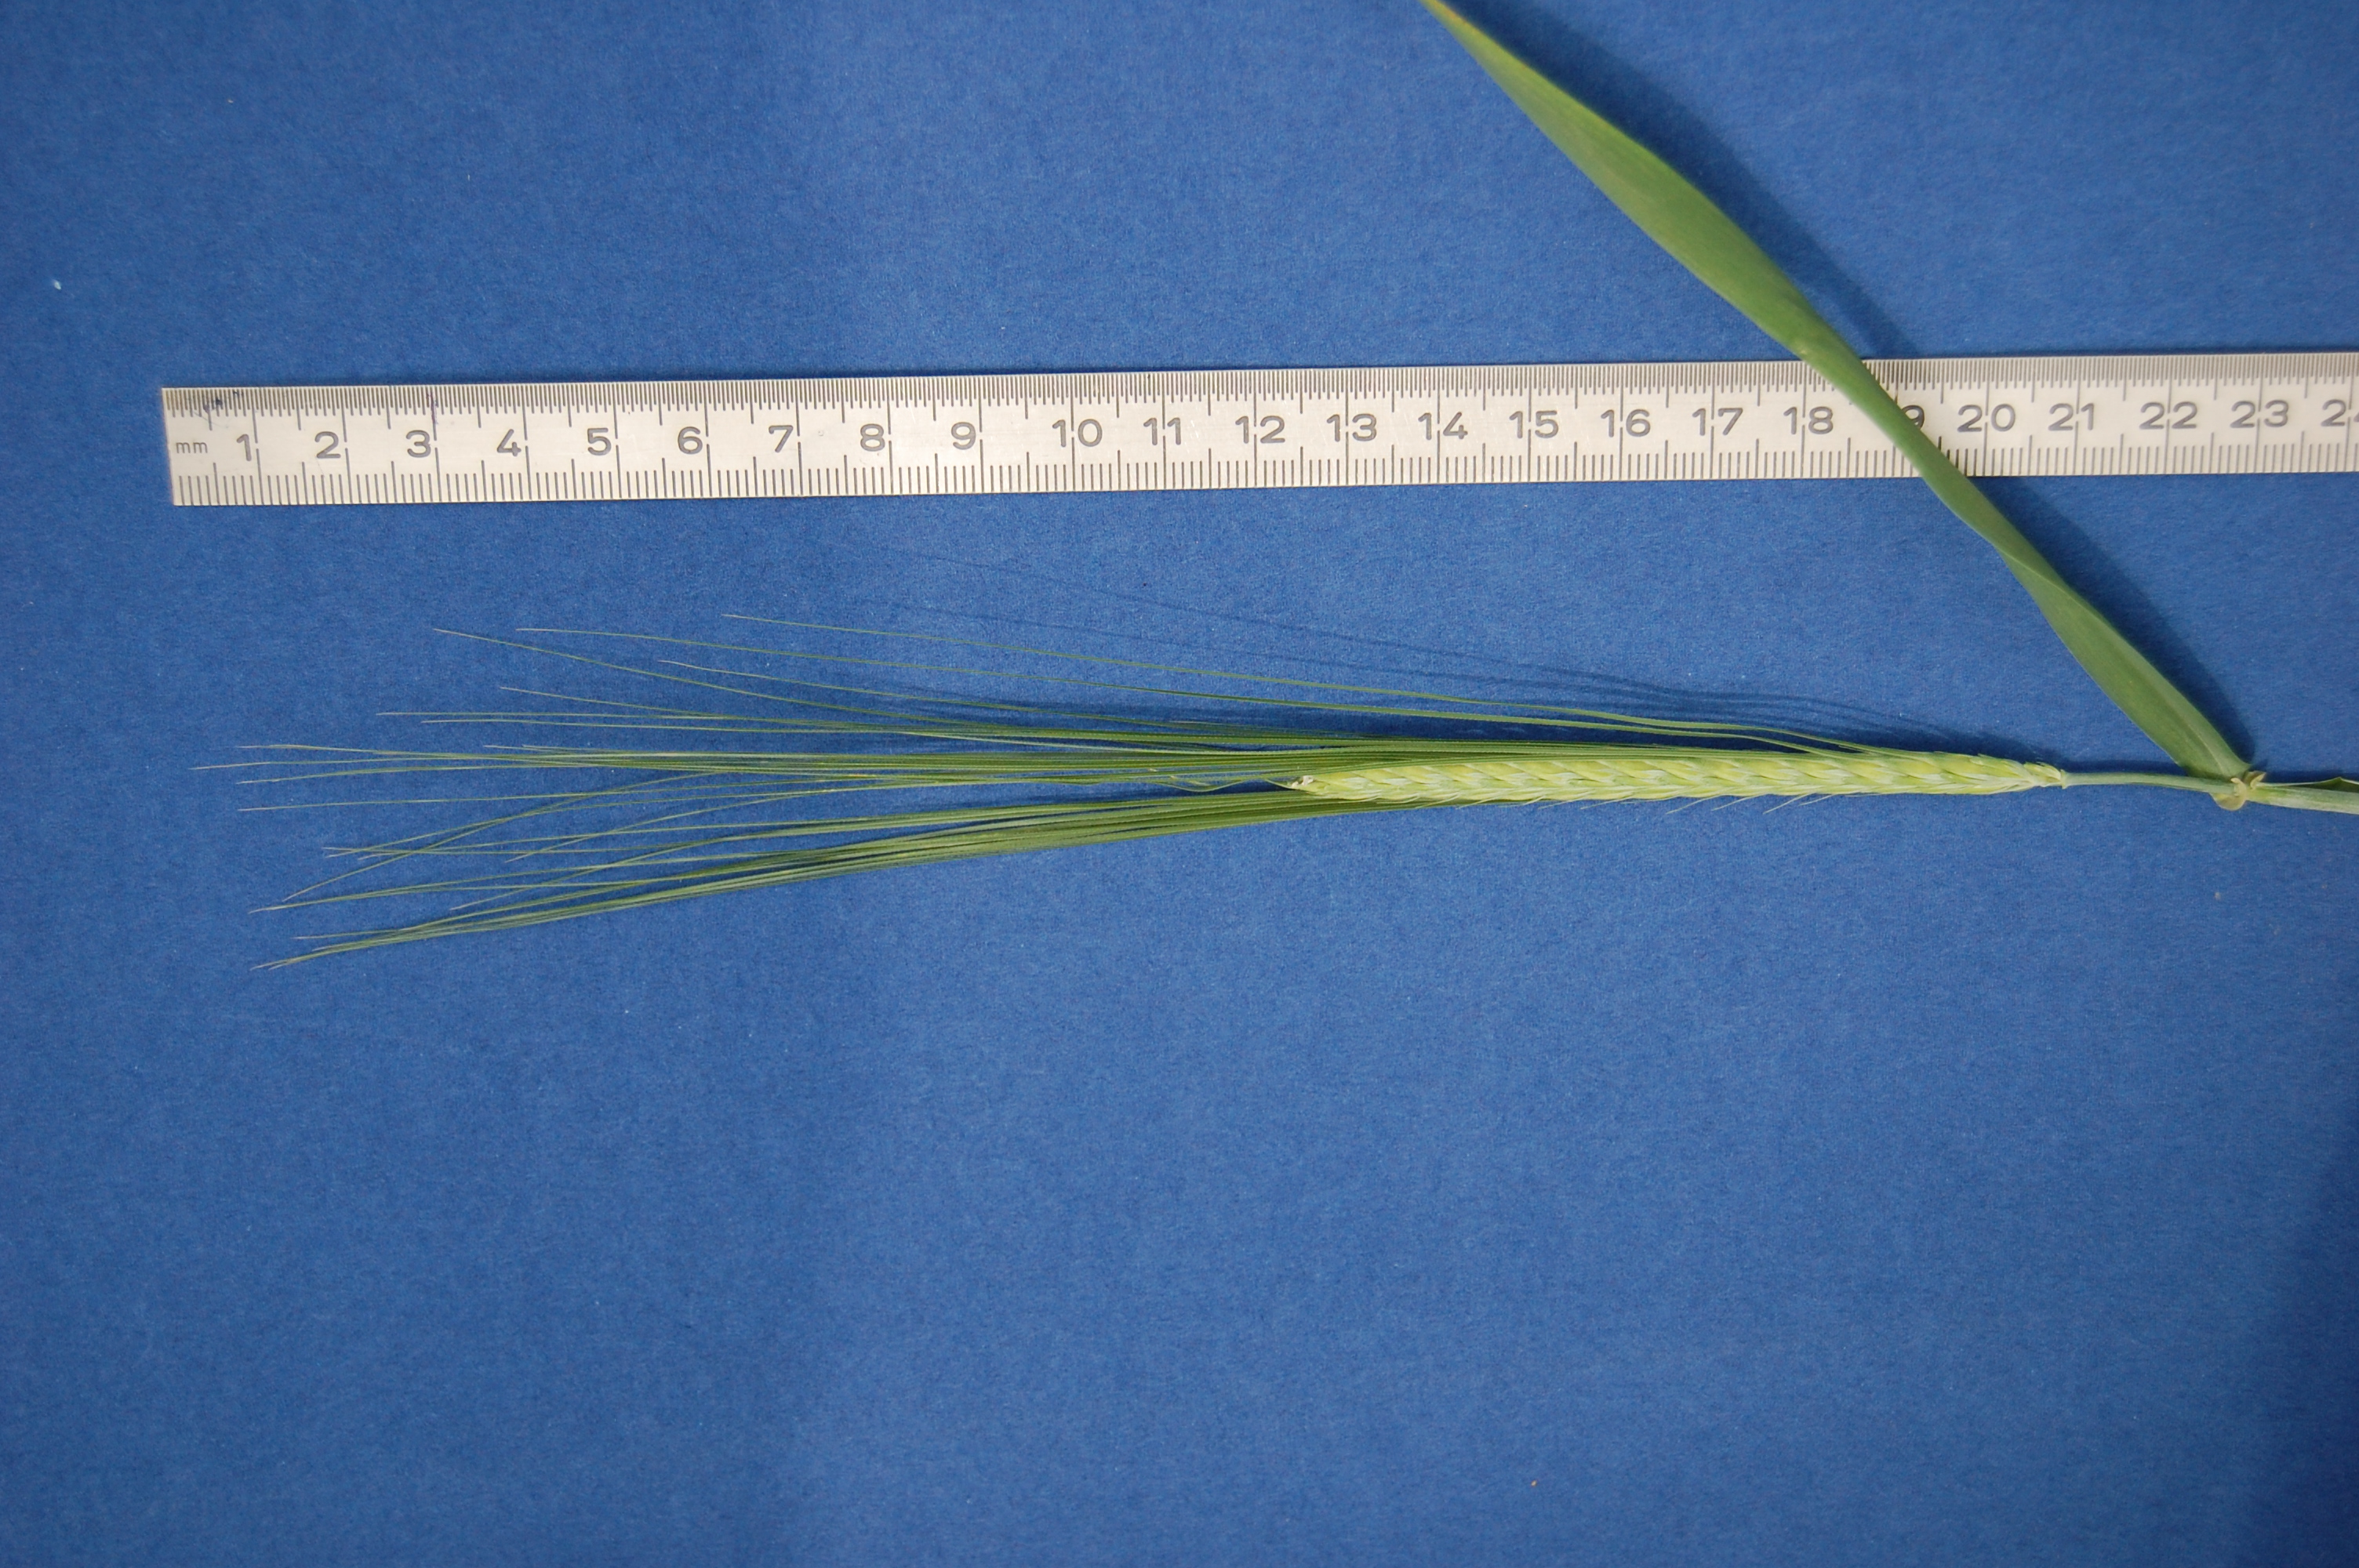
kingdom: Plantae
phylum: Tracheophyta
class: Liliopsida
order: Poales
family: Poaceae
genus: Hordeum
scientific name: Hordeum vulgare
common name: Common barley
